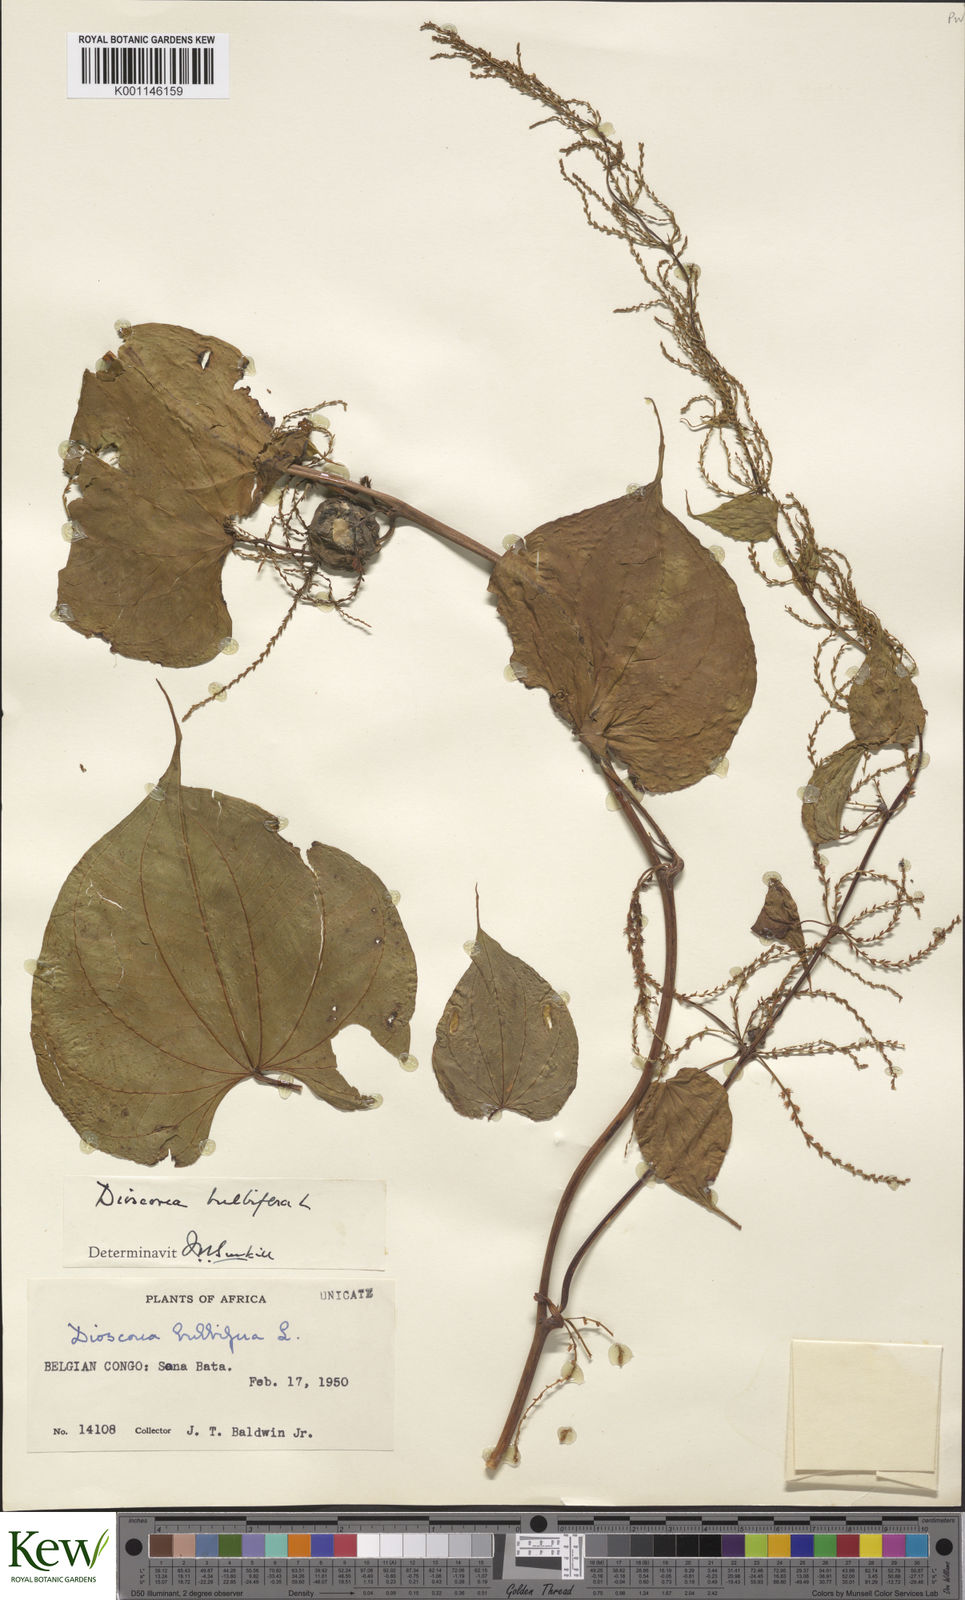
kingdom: Plantae
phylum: Tracheophyta
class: Liliopsida
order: Dioscoreales
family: Dioscoreaceae
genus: Dioscorea
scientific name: Dioscorea bulbifera
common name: Air yam
